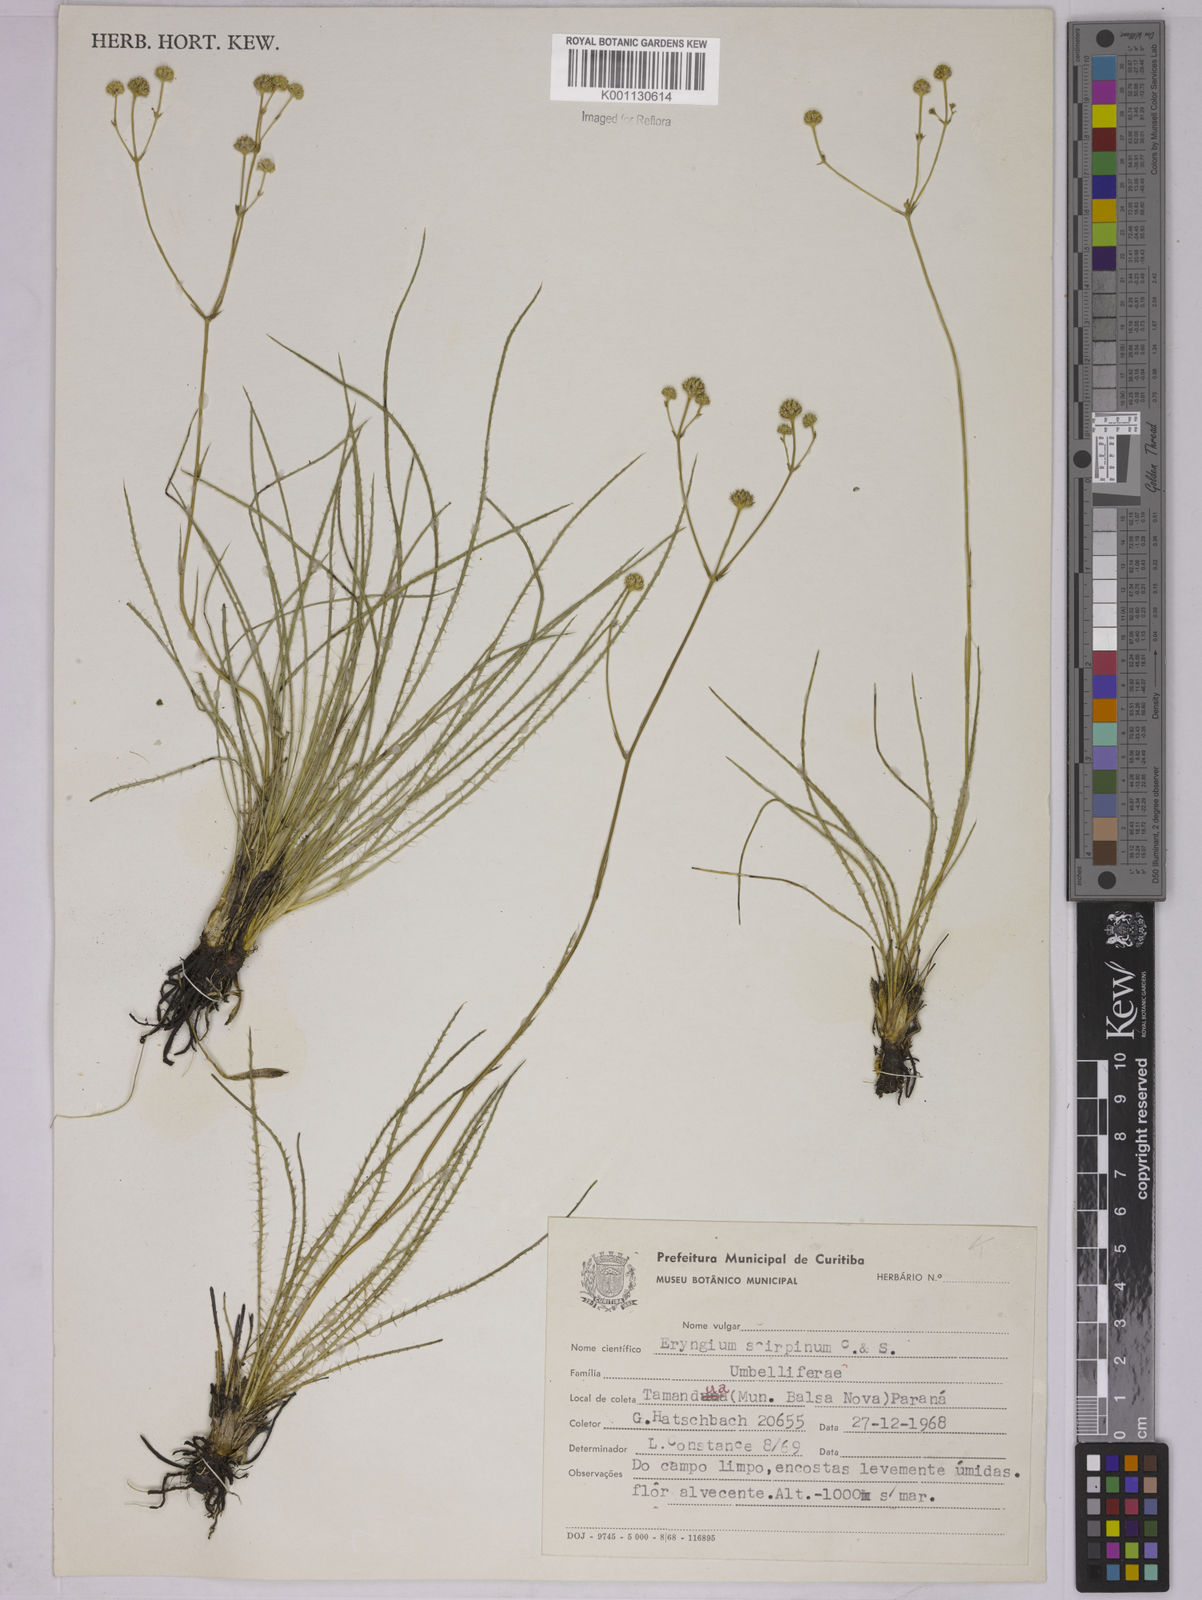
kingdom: Plantae
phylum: Tracheophyta
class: Magnoliopsida
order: Apiales
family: Apiaceae
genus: Eryngium
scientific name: Eryngium scirpinum
